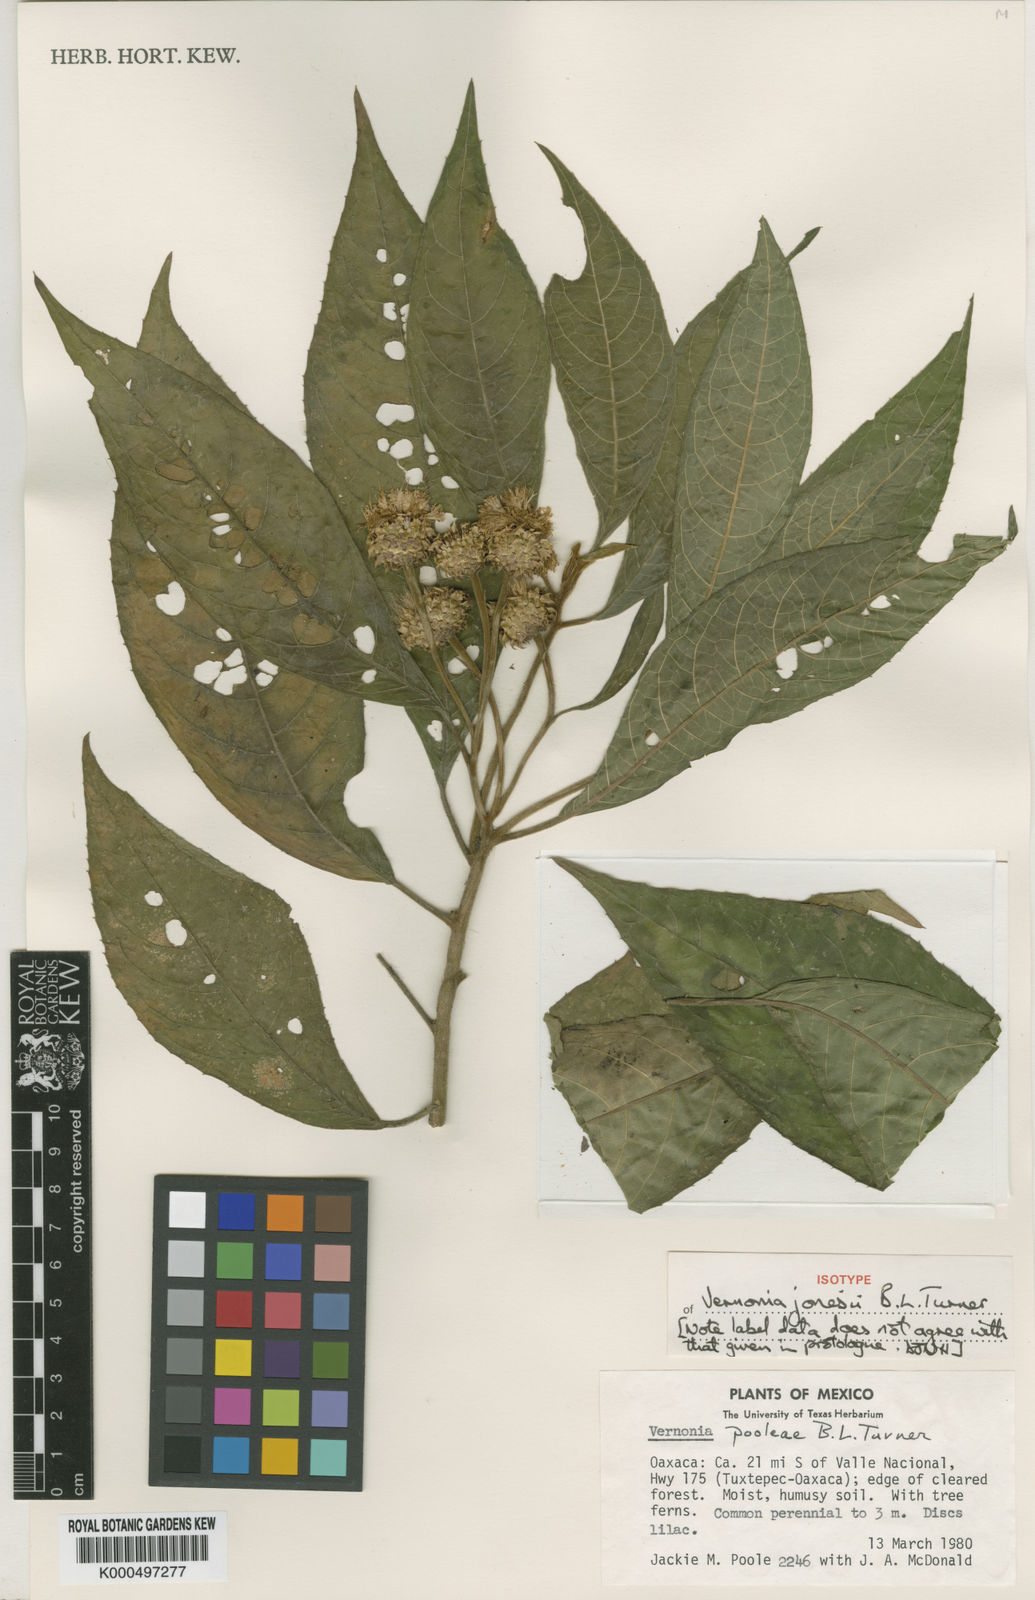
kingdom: Plantae
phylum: Tracheophyta
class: Magnoliopsida
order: Asterales
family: Asteraceae
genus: Lepidonia
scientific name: Lepidonia jonesii
